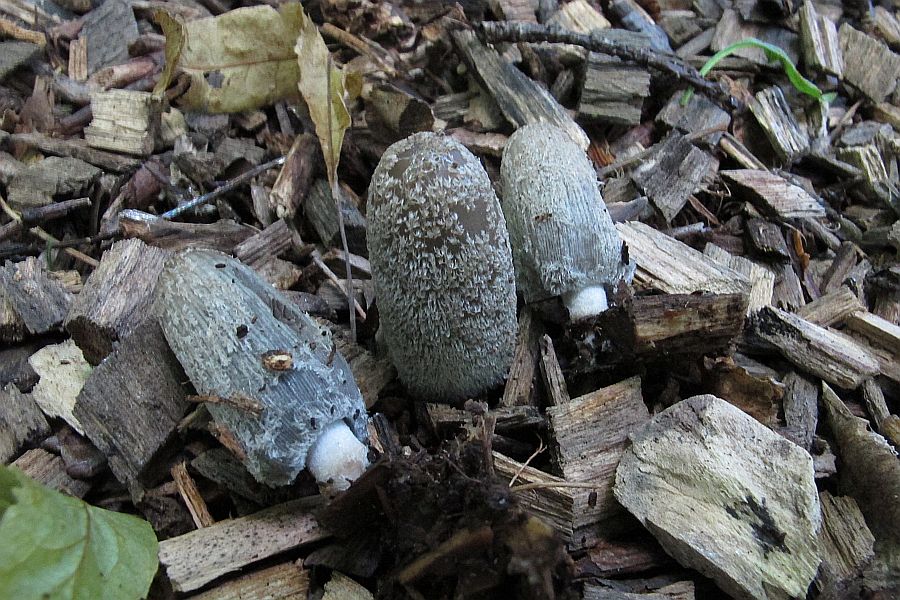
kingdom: Fungi
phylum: Basidiomycota
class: Agaricomycetes
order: Agaricales
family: Psathyrellaceae
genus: Coprinopsis
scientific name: Coprinopsis lagopus
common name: dunstokket blækhat
